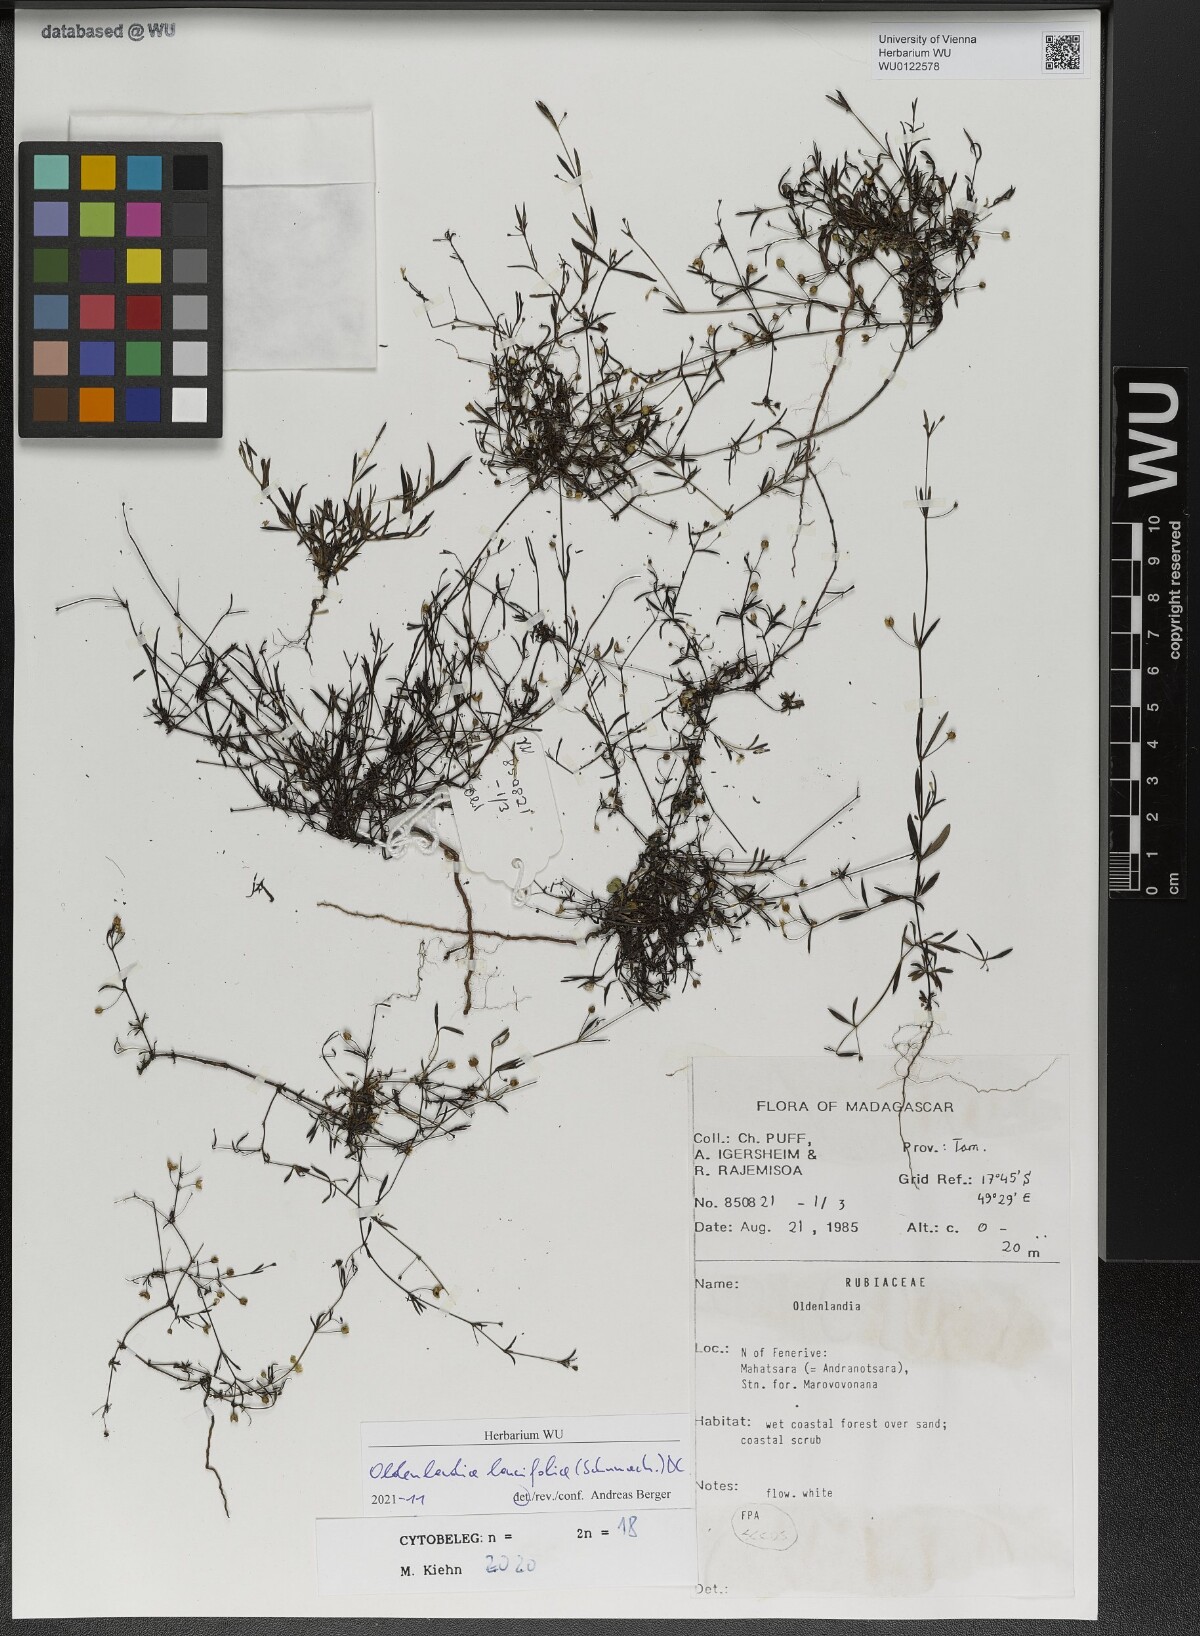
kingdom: Plantae
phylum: Tracheophyta
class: Magnoliopsida
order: Gentianales
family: Rubiaceae
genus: Oldenlandia
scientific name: Oldenlandia lancifolia
